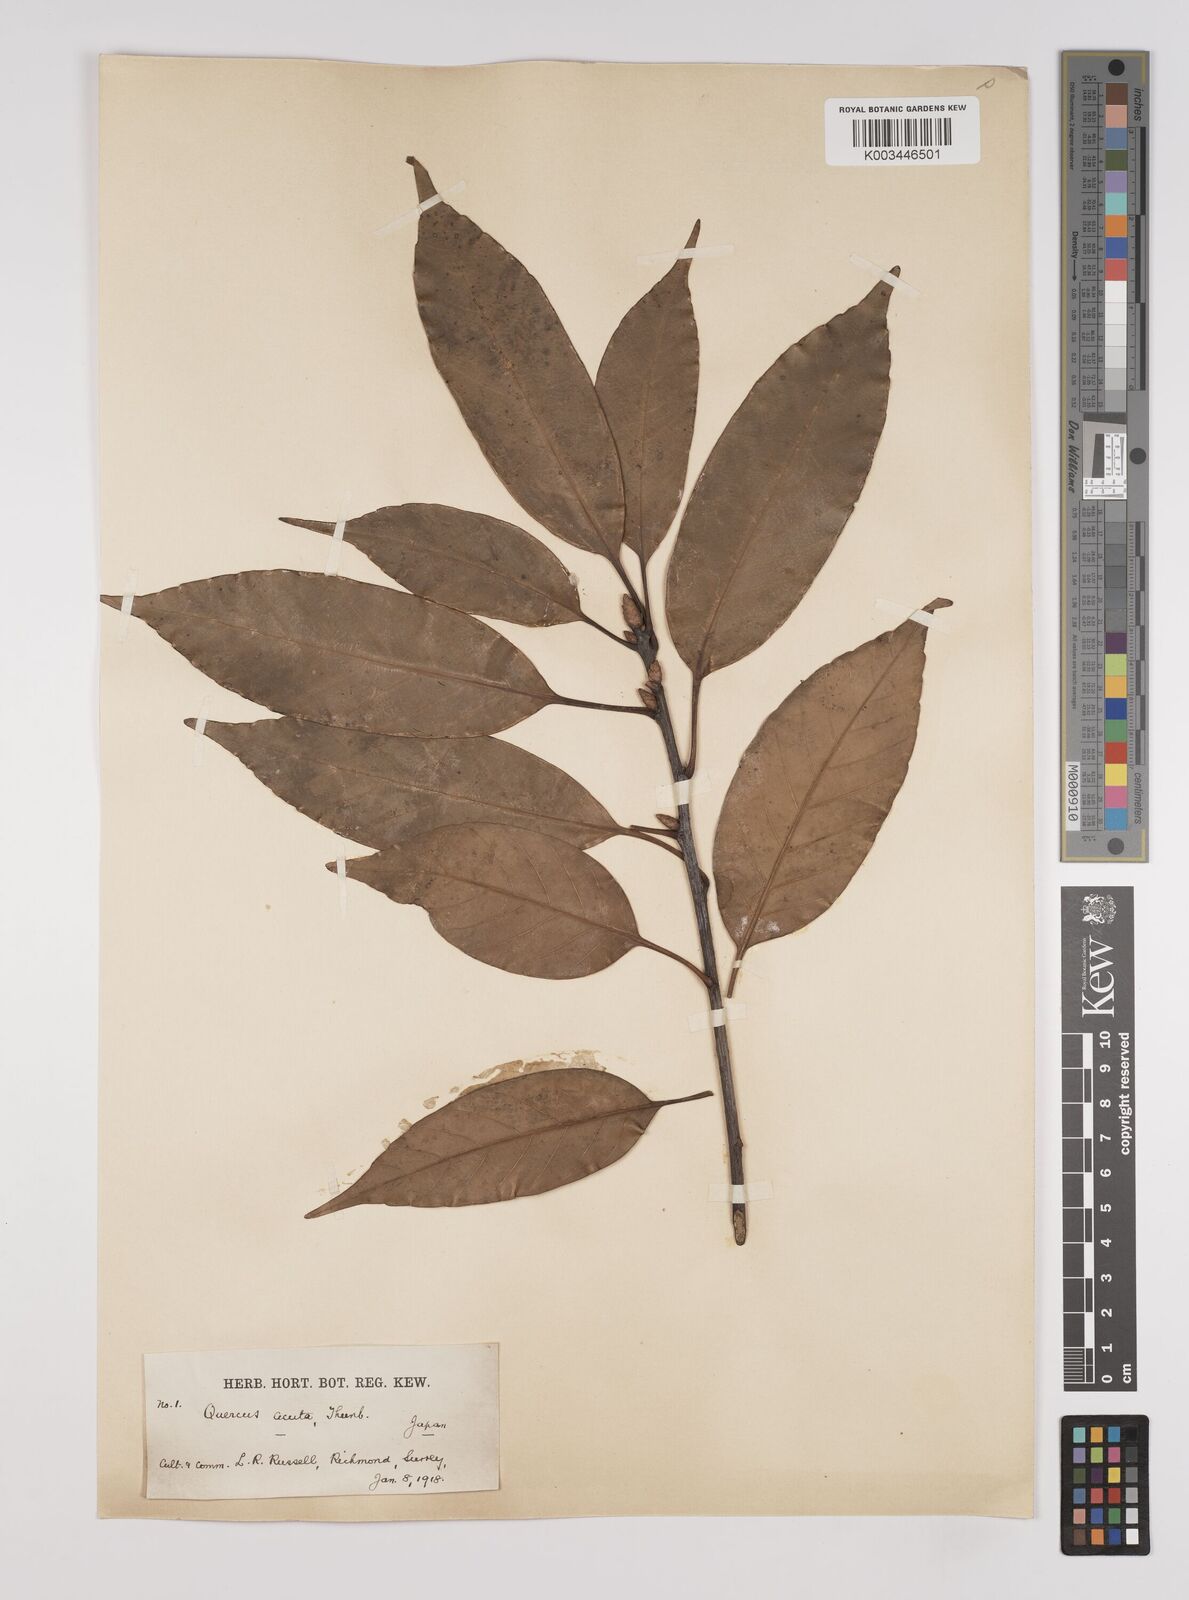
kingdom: Plantae
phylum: Tracheophyta
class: Magnoliopsida
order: Fagales
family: Fagaceae
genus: Quercus
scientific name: Quercus coccinea
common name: Scarlet oak
